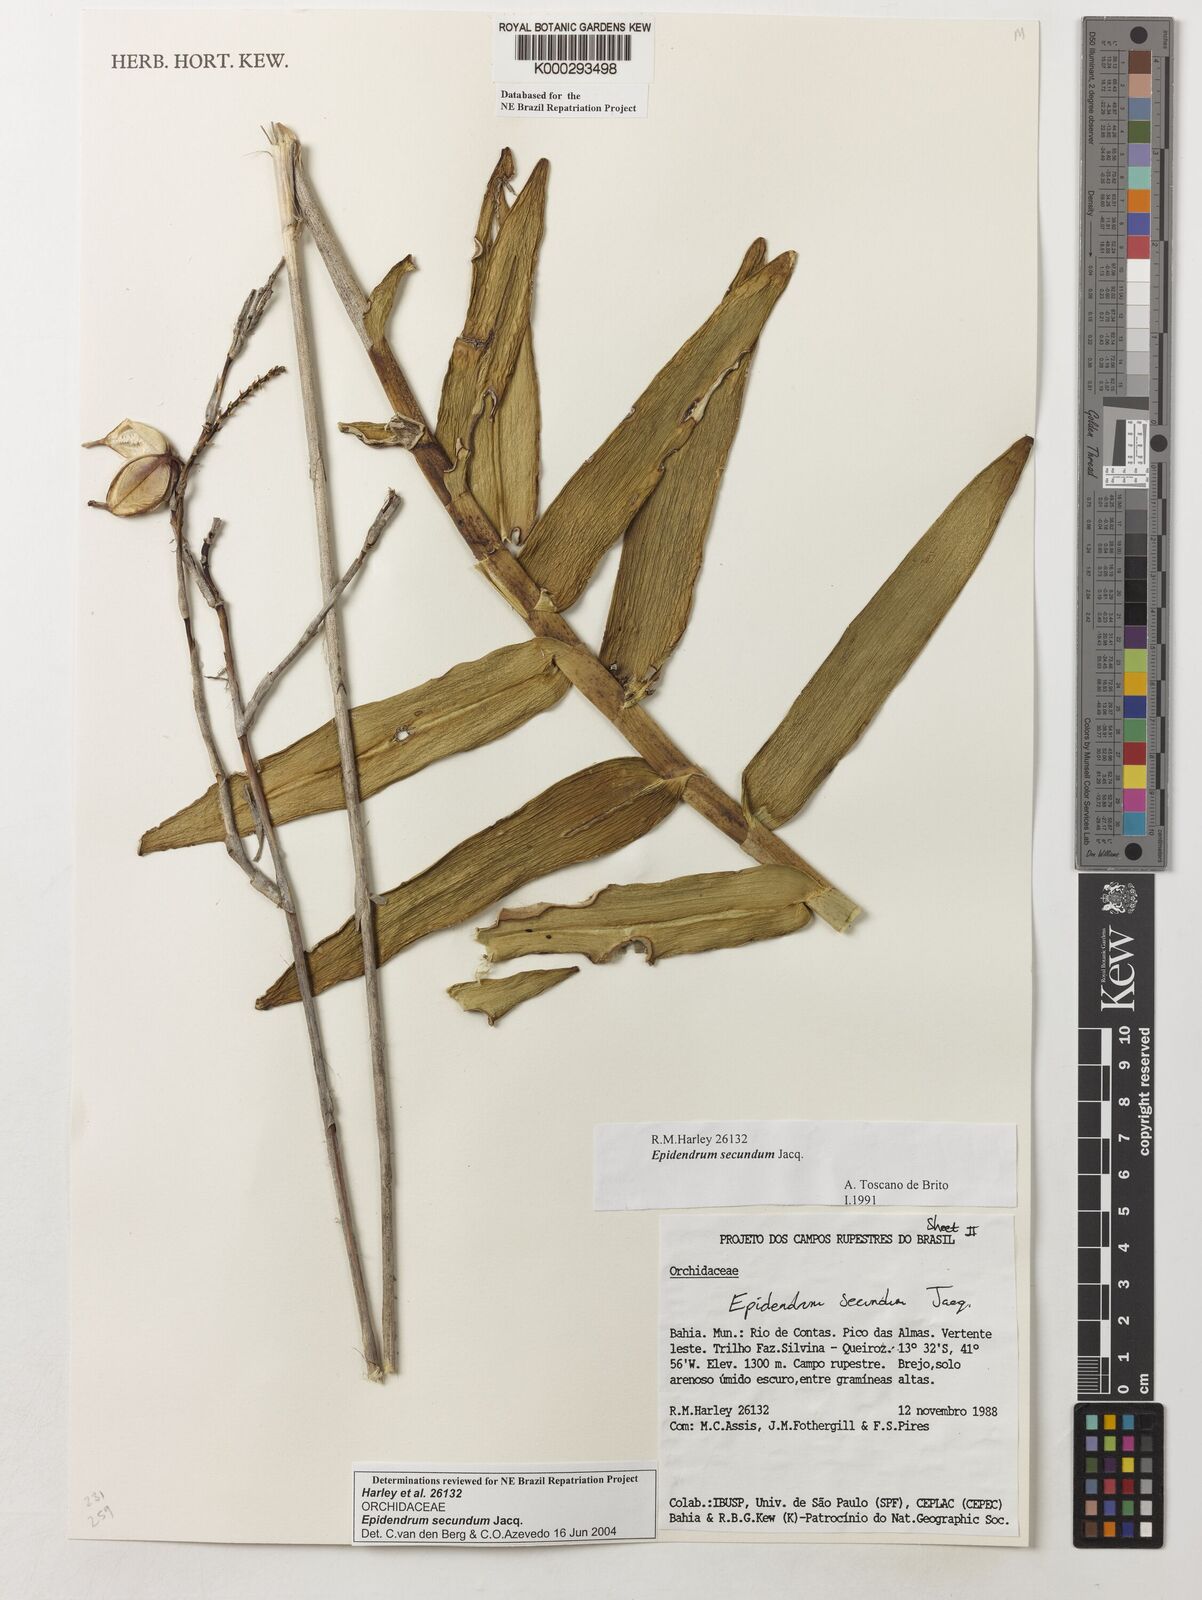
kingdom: Plantae
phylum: Tracheophyta
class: Liliopsida
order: Asparagales
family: Orchidaceae
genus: Epidendrum
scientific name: Epidendrum secundum
